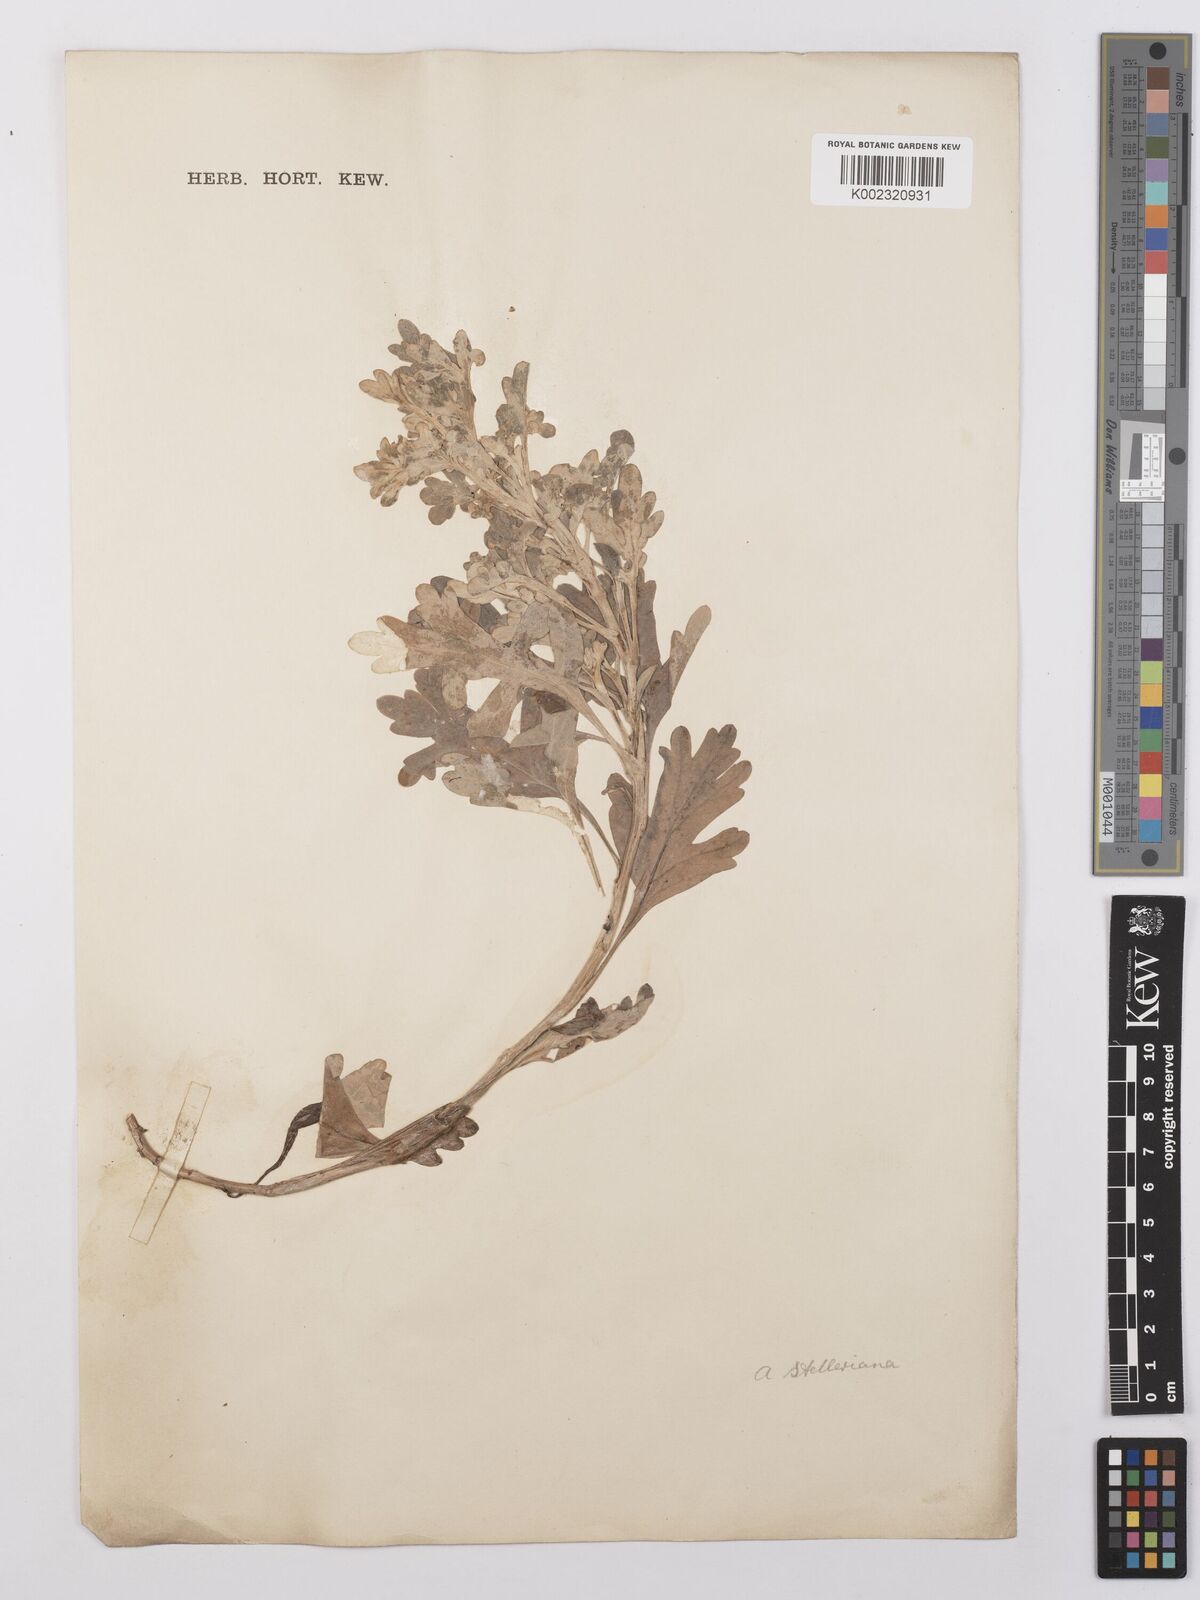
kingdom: Plantae
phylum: Tracheophyta
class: Magnoliopsida
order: Asterales
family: Asteraceae
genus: Artemisia
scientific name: Artemisia stelleriana
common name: Beach wormwood
